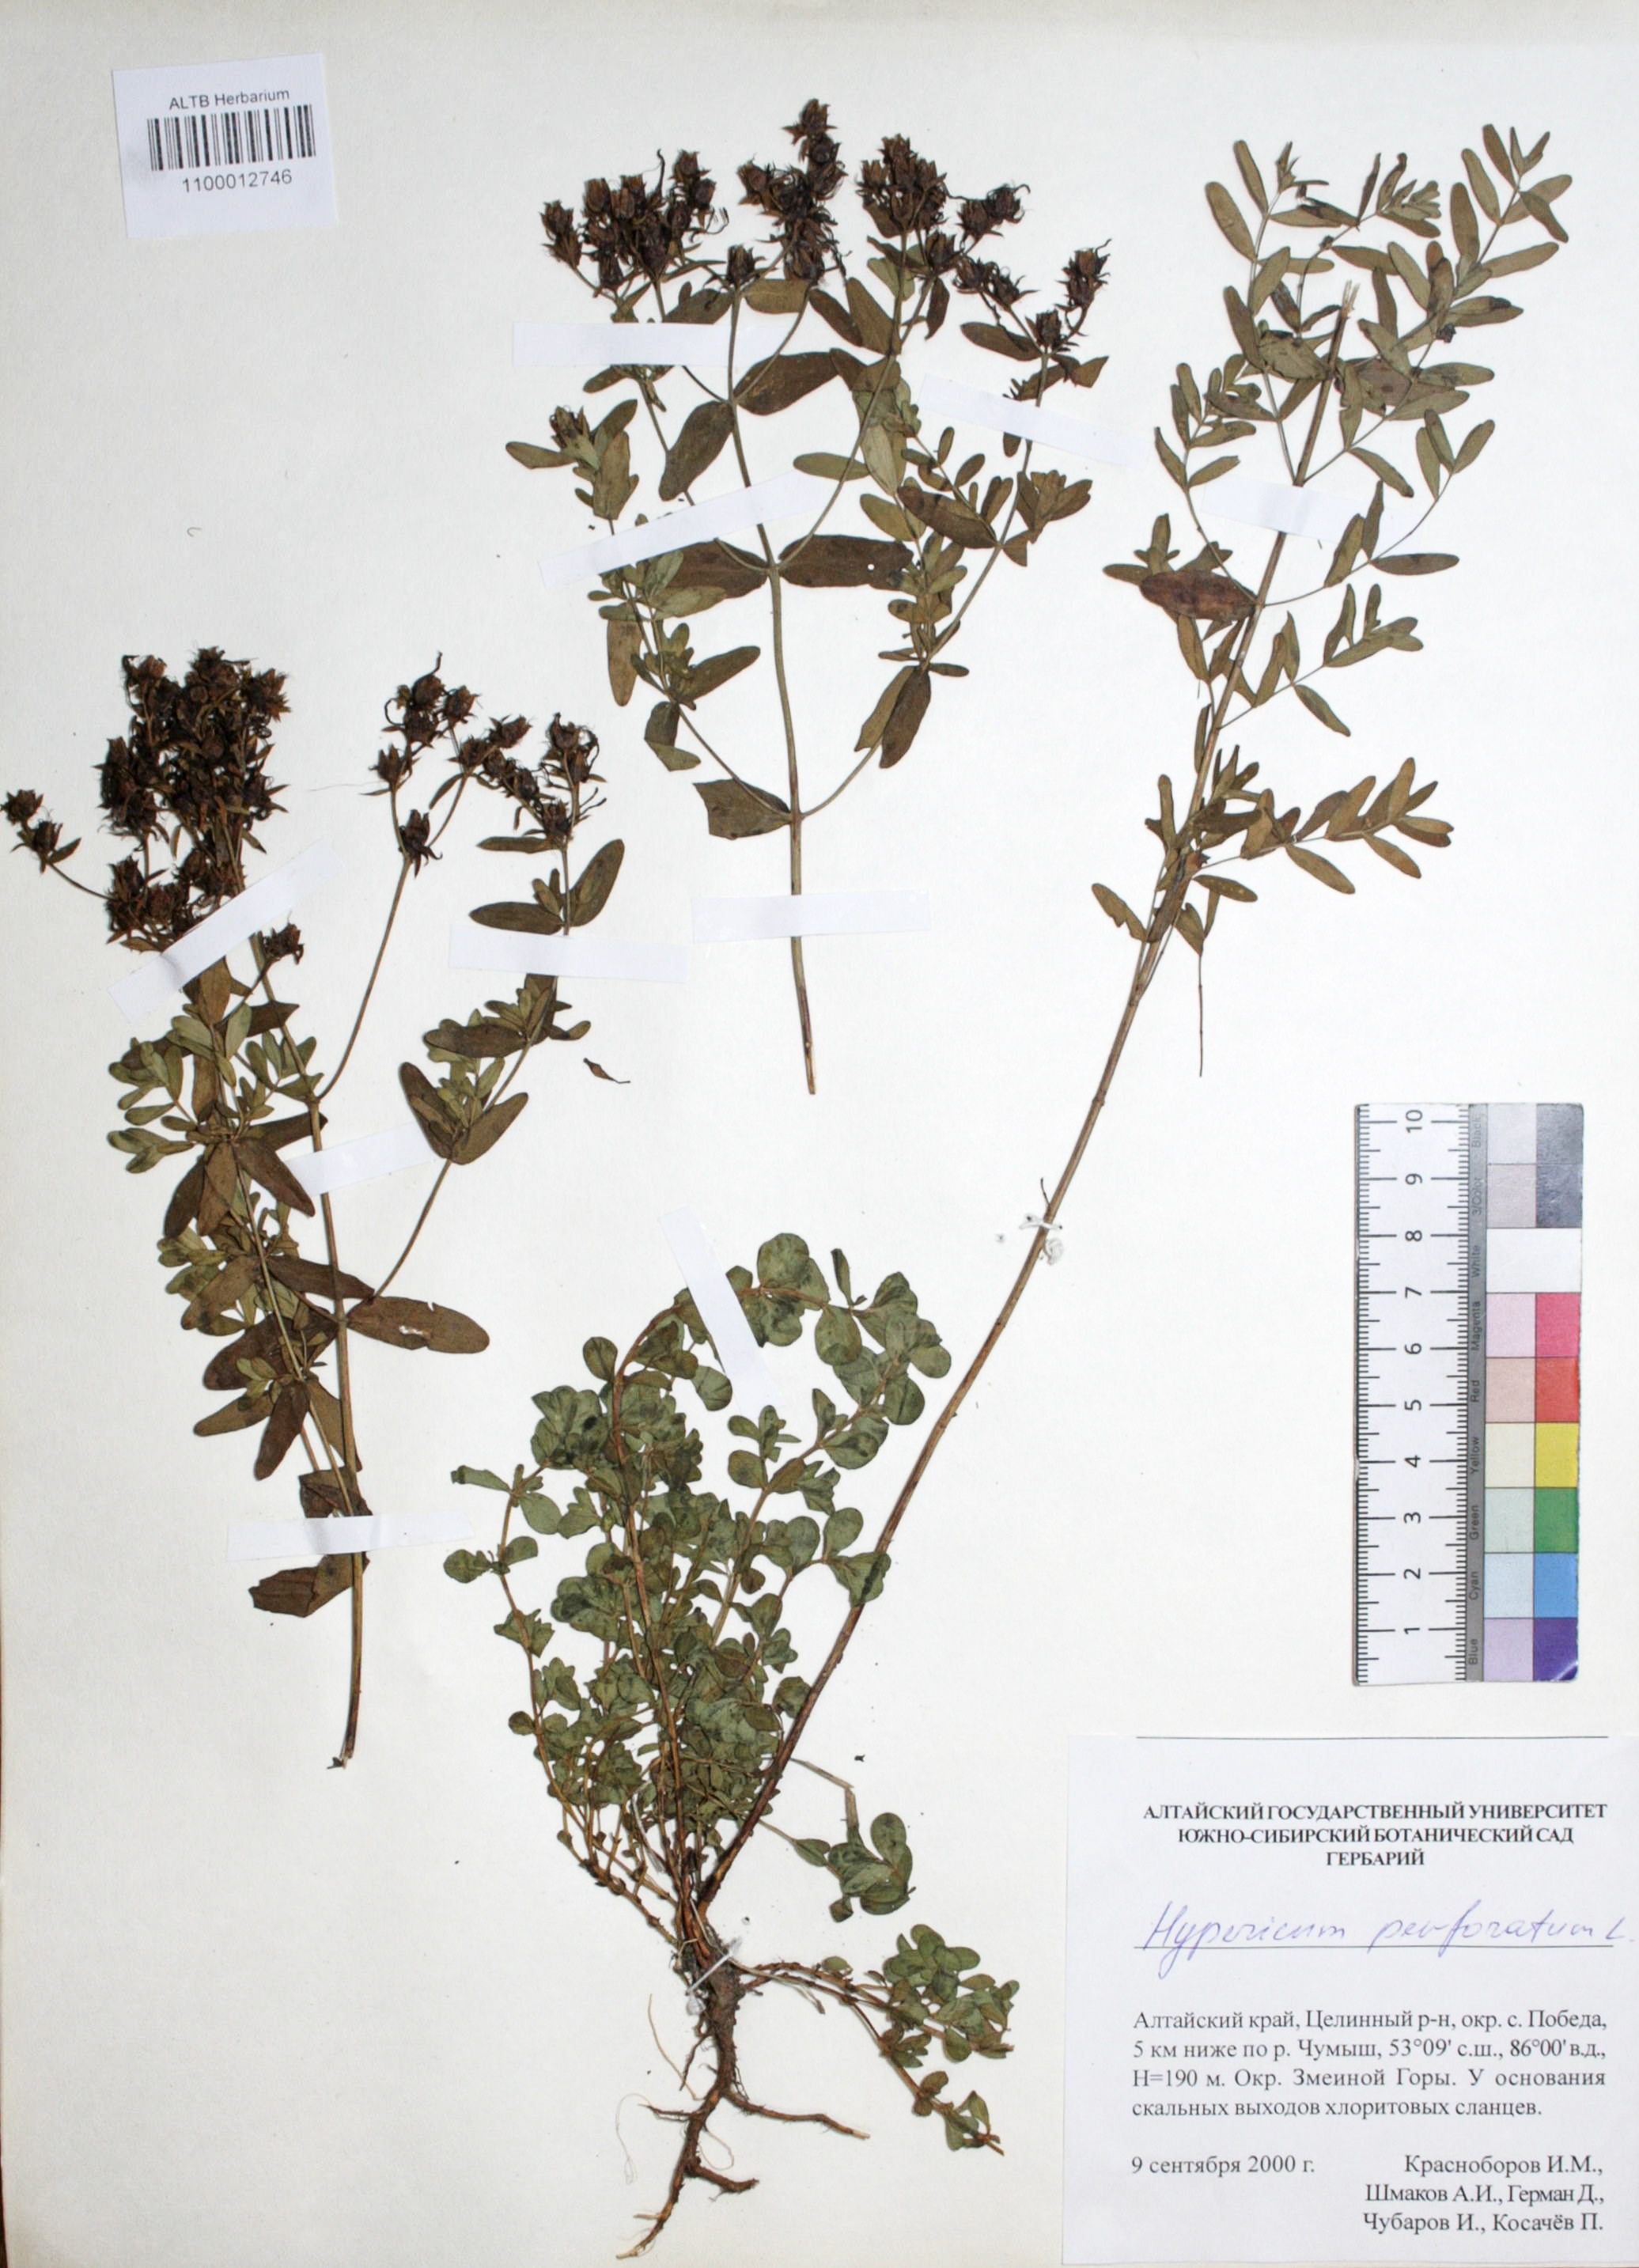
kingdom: Plantae
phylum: Tracheophyta
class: Magnoliopsida
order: Malpighiales
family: Hypericaceae
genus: Hypericum
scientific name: Hypericum perforatum
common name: Common st. johnswort
